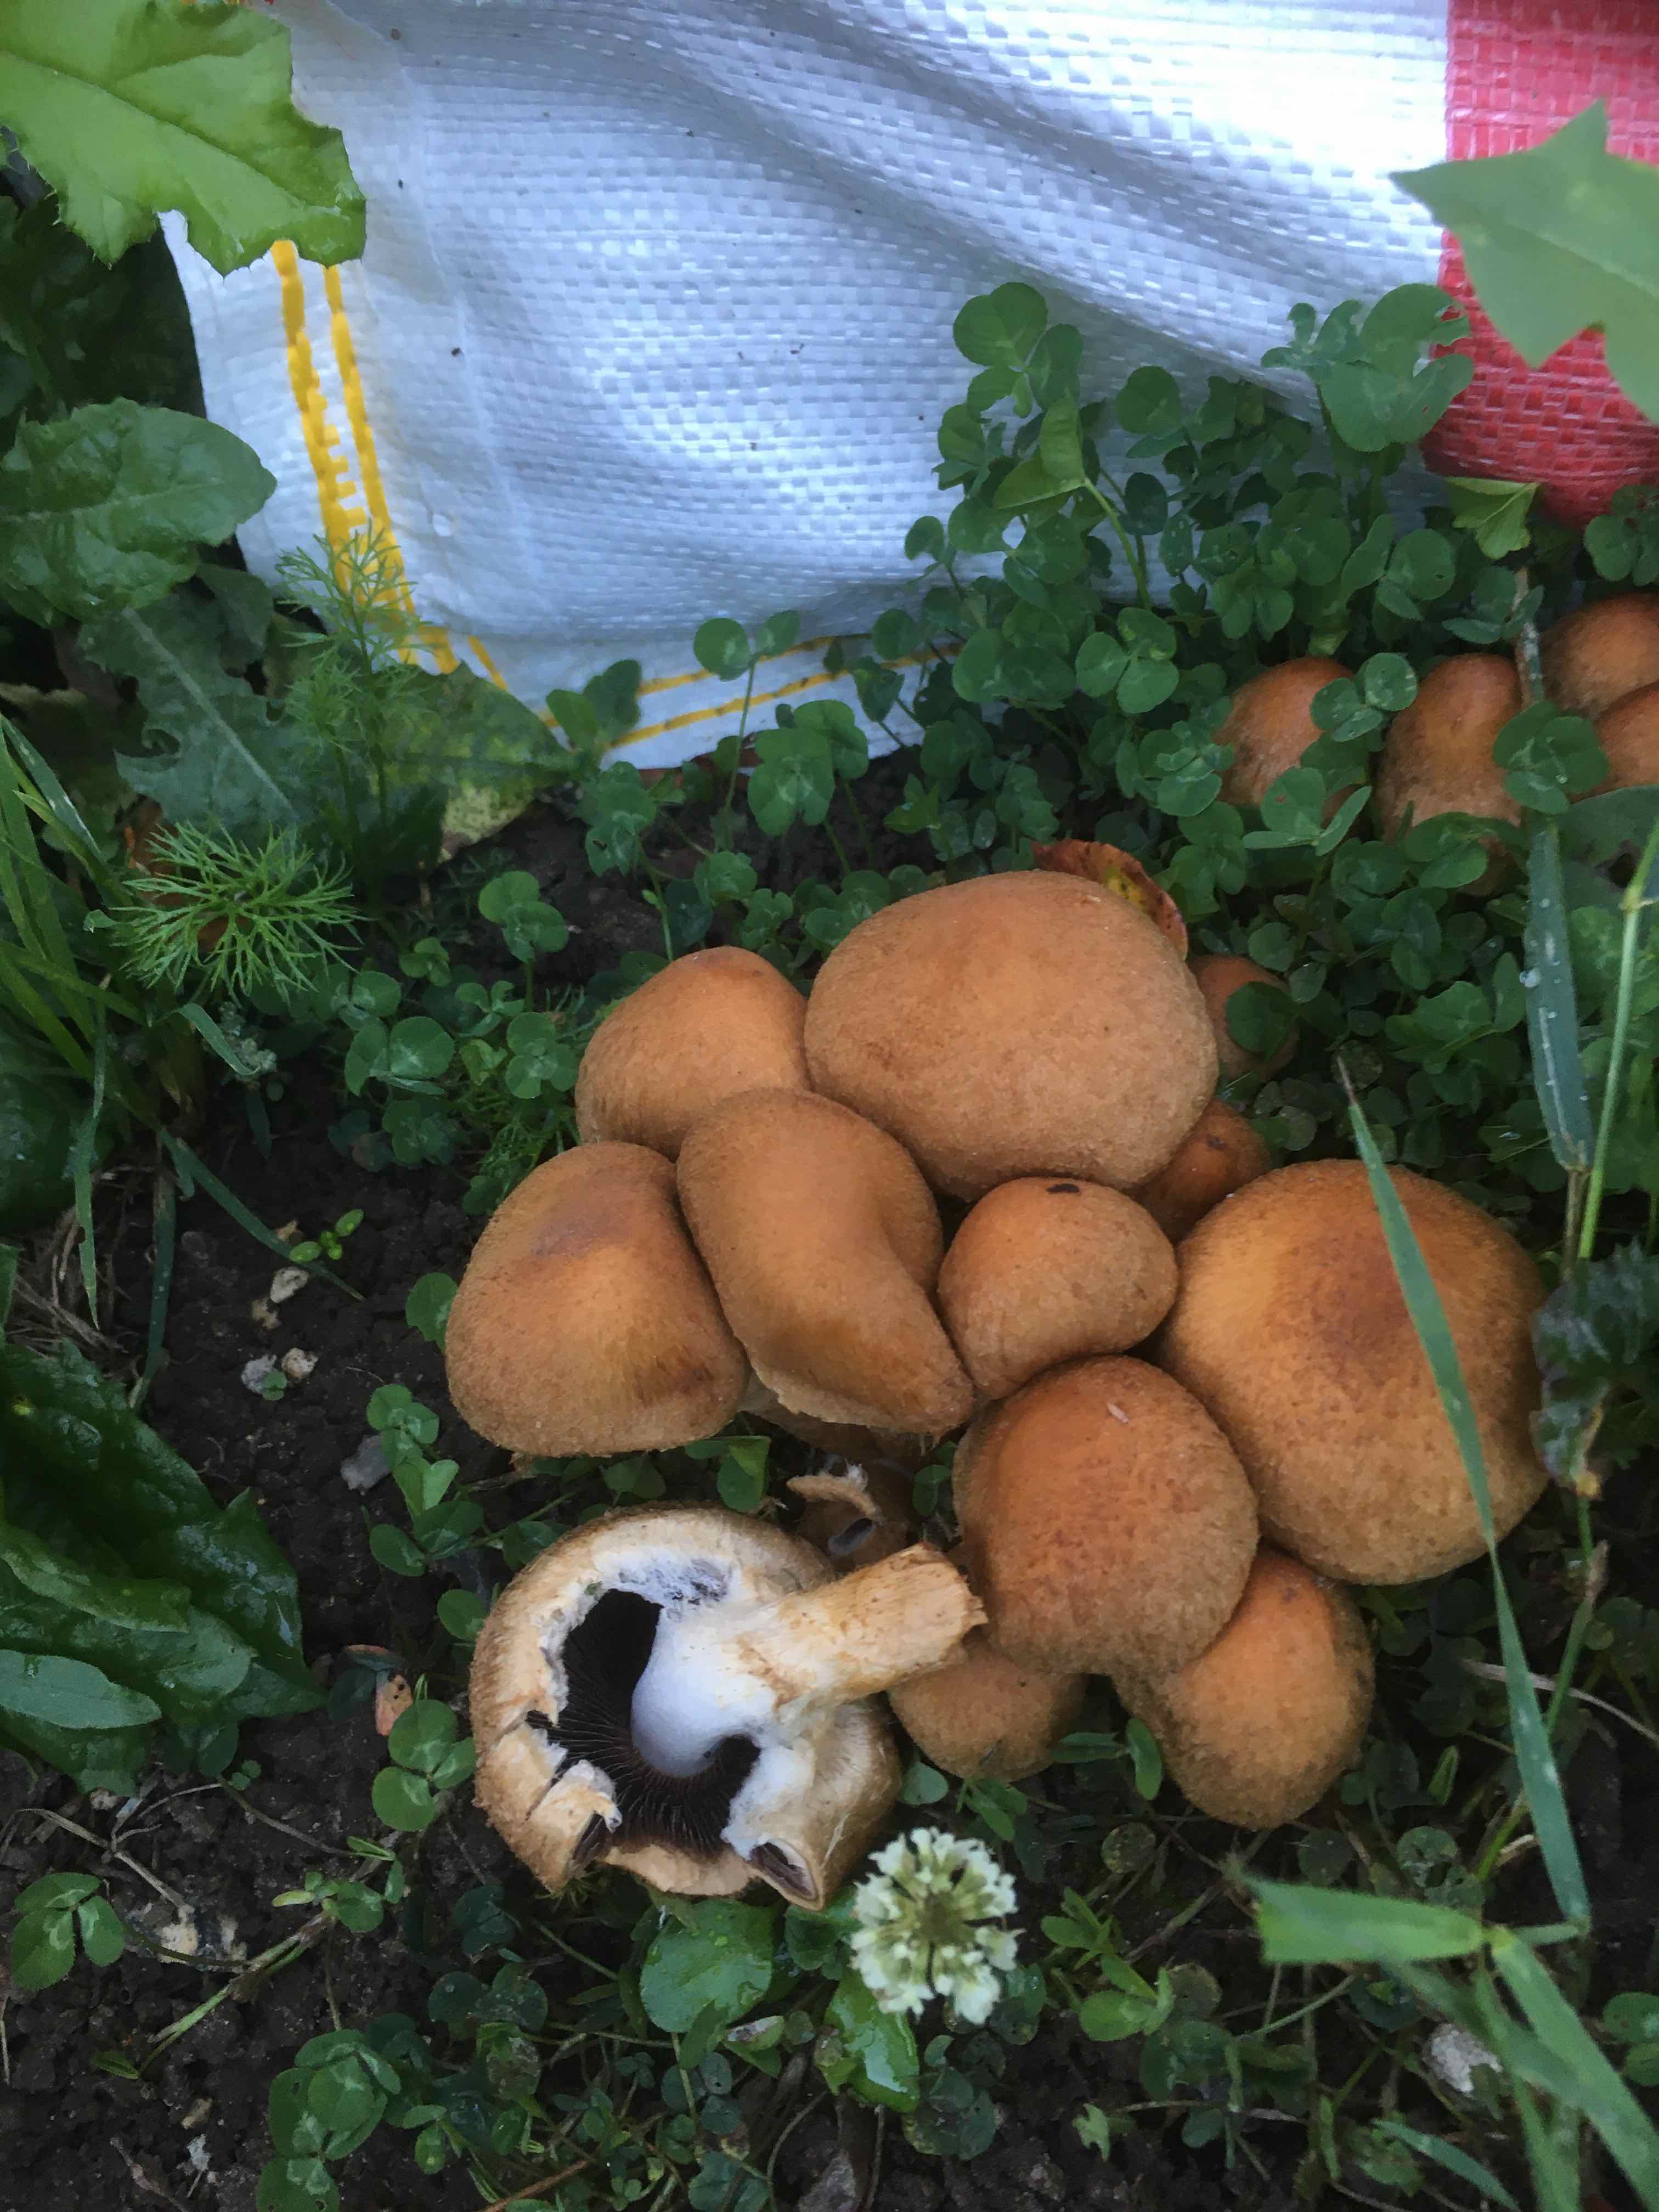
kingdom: Fungi
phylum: Basidiomycota
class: Agaricomycetes
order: Agaricales
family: Psathyrellaceae
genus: Lacrymaria
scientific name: Lacrymaria lacrymabunda
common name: grædende mørkhat
